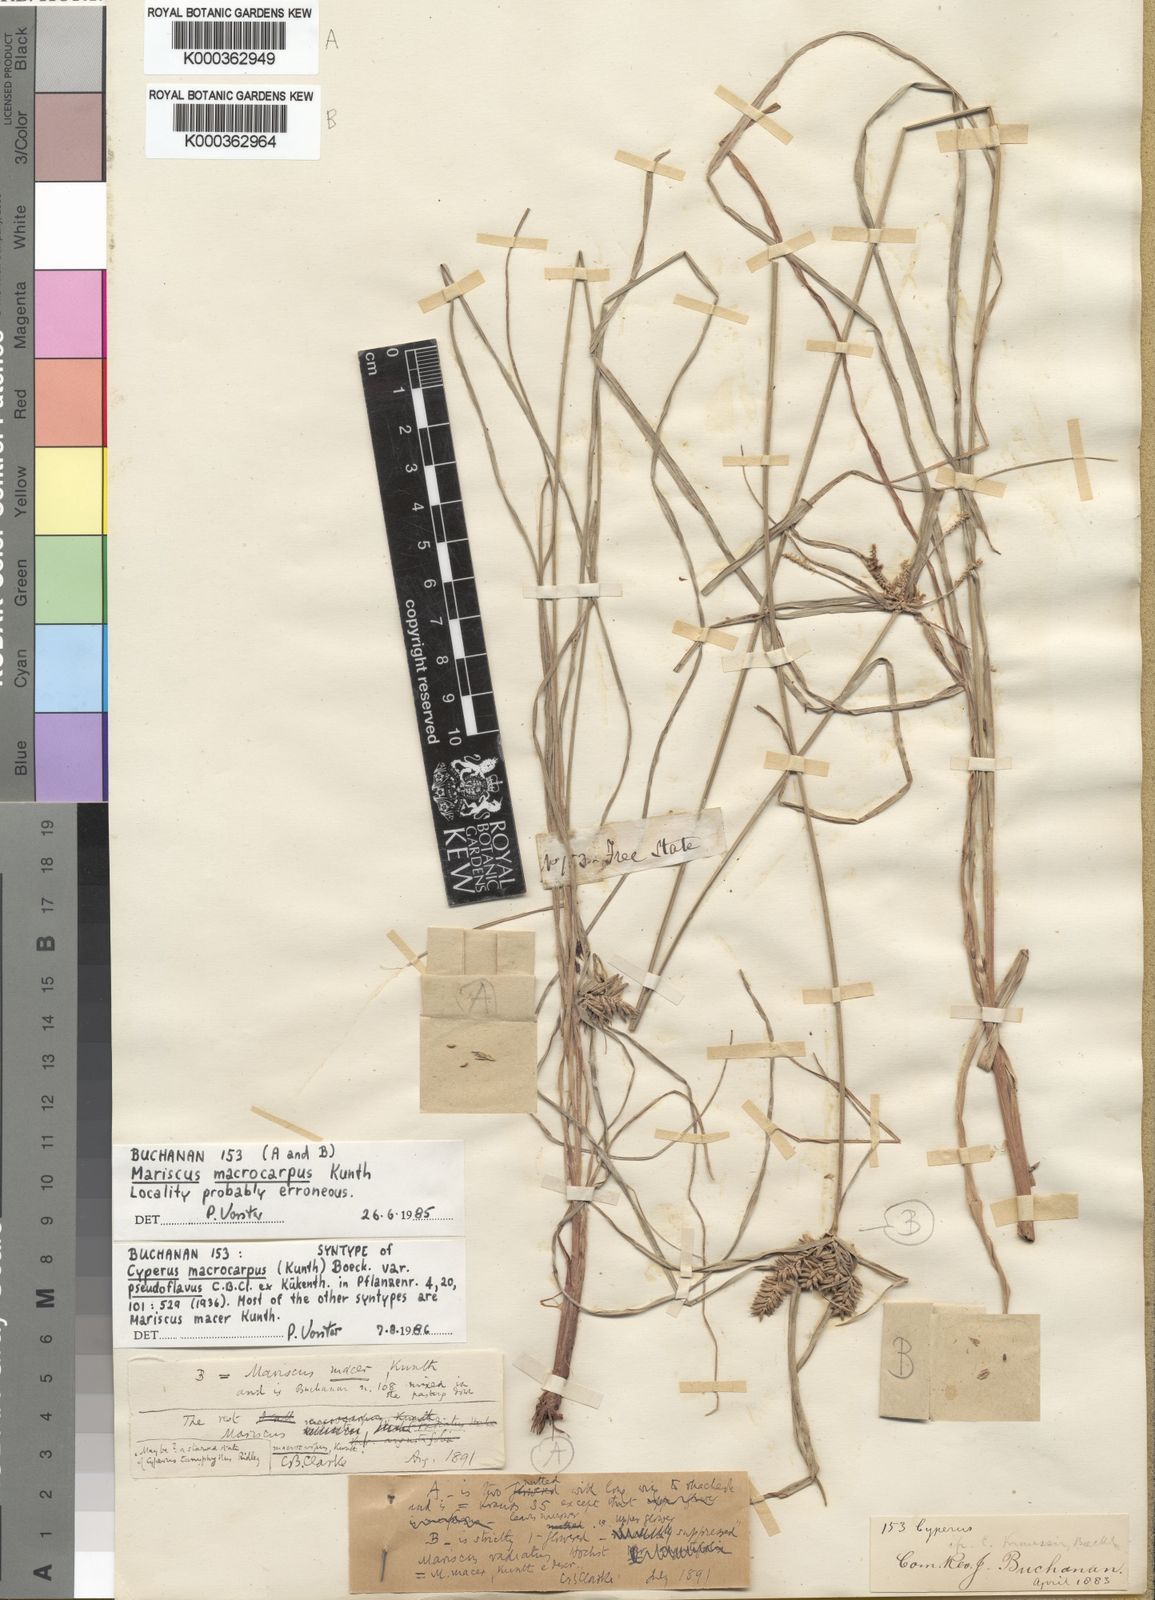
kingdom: Plantae
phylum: Tracheophyta
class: Liliopsida
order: Poales
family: Cyperaceae
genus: Cyperus
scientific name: Cyperus macrocarpus
